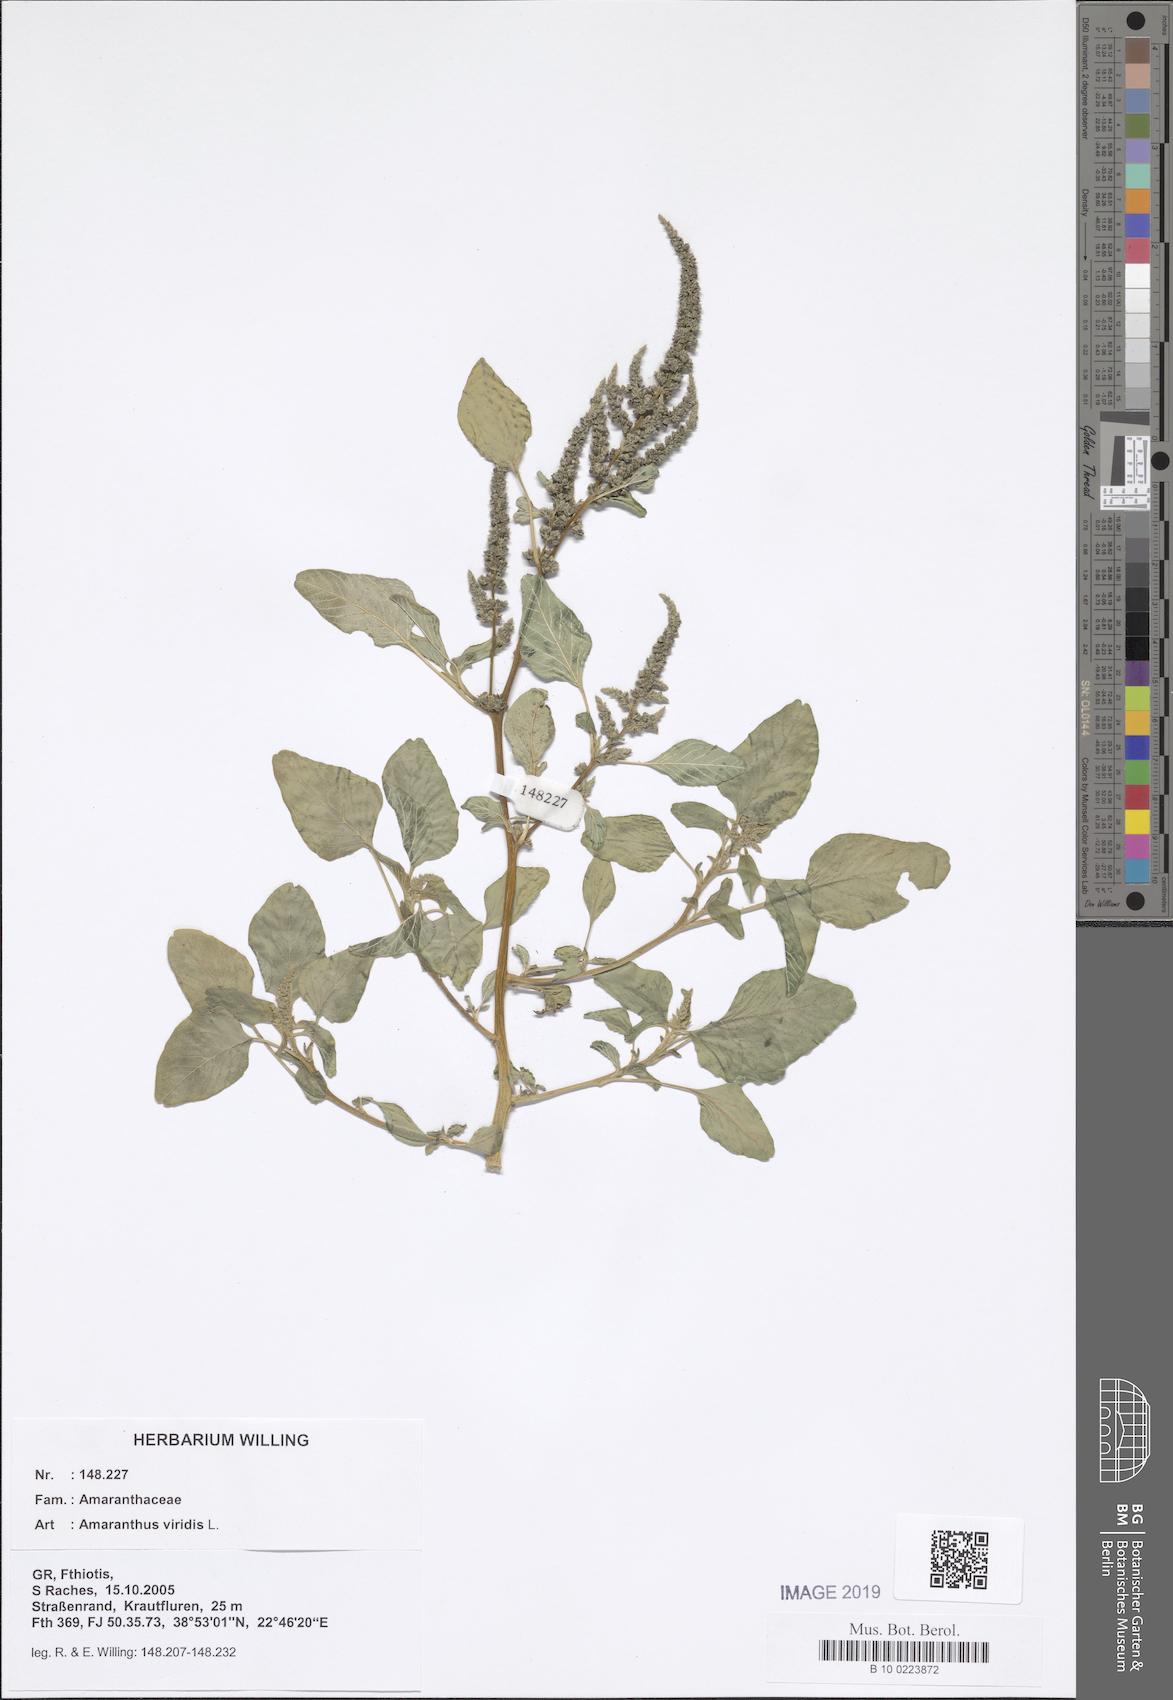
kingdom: Plantae
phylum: Tracheophyta
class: Magnoliopsida
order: Caryophyllales
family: Amaranthaceae
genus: Amaranthus
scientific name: Amaranthus viridis
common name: Slender amaranth
